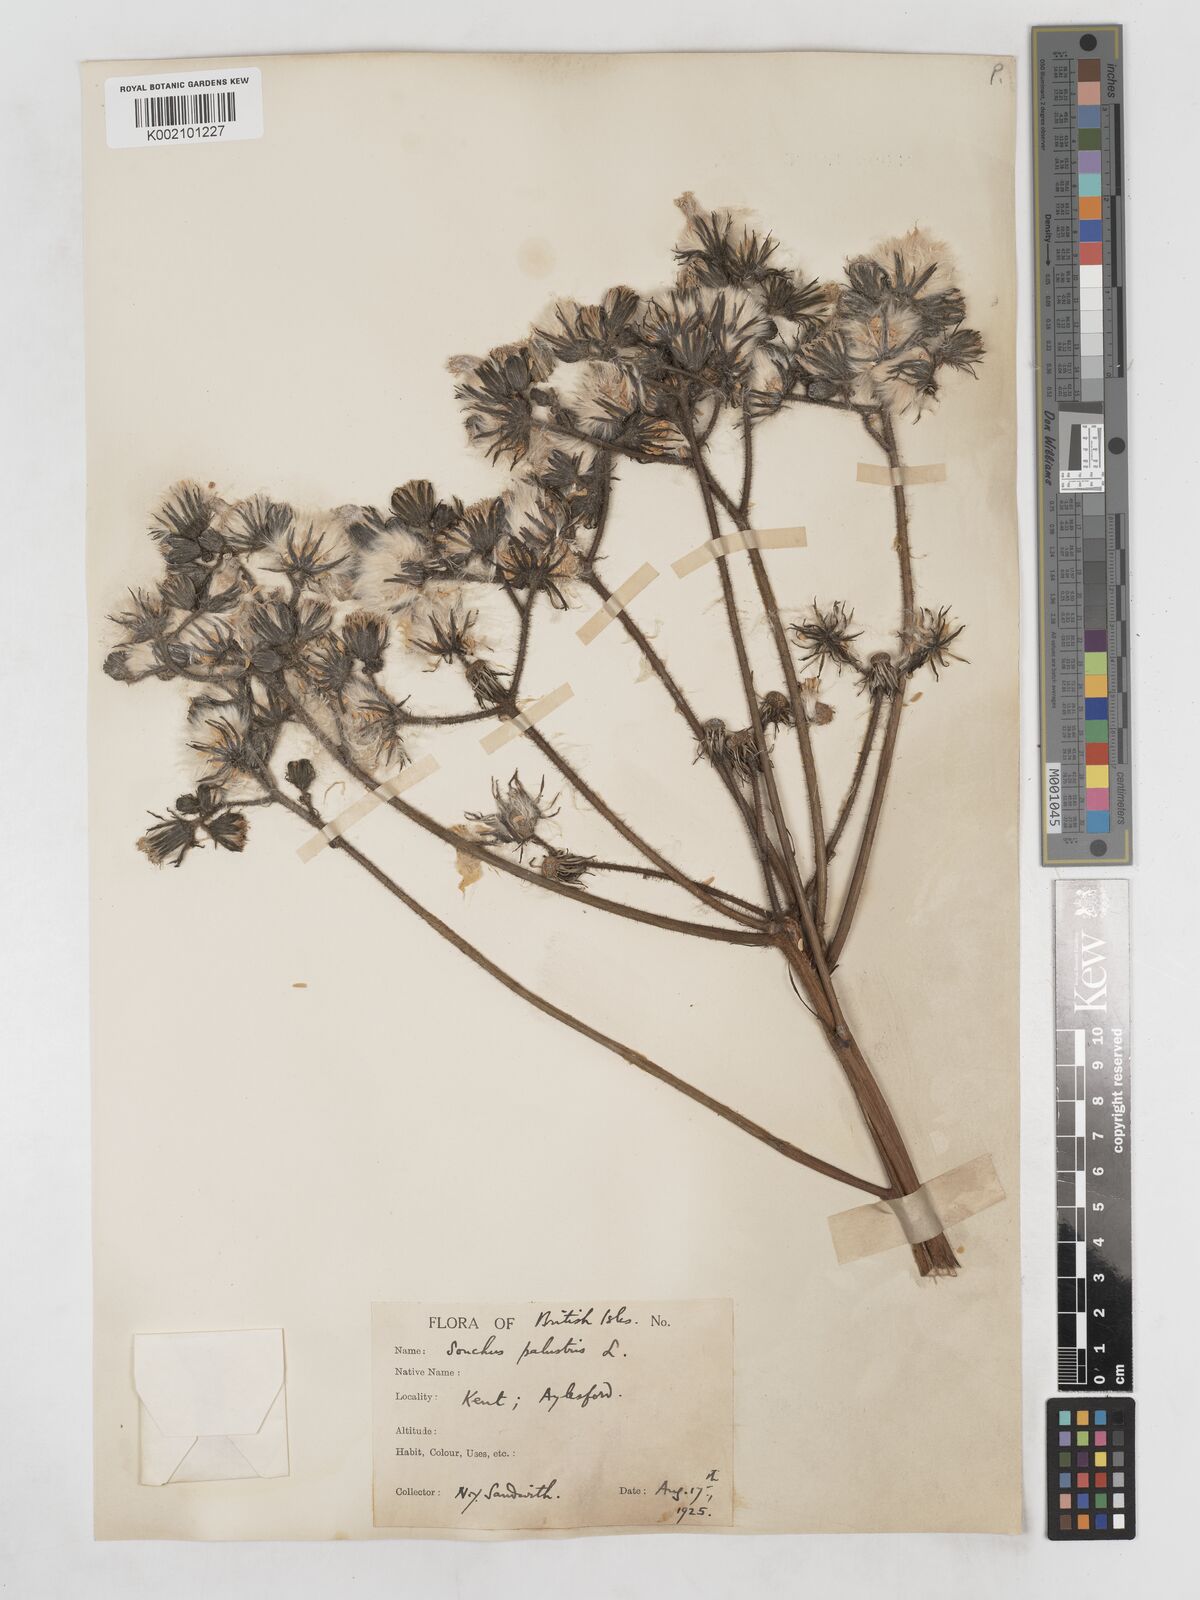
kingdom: Plantae
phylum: Tracheophyta
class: Magnoliopsida
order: Asterales
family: Asteraceae
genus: Sonchus
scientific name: Sonchus palustris
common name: Marsh sow-thistle
